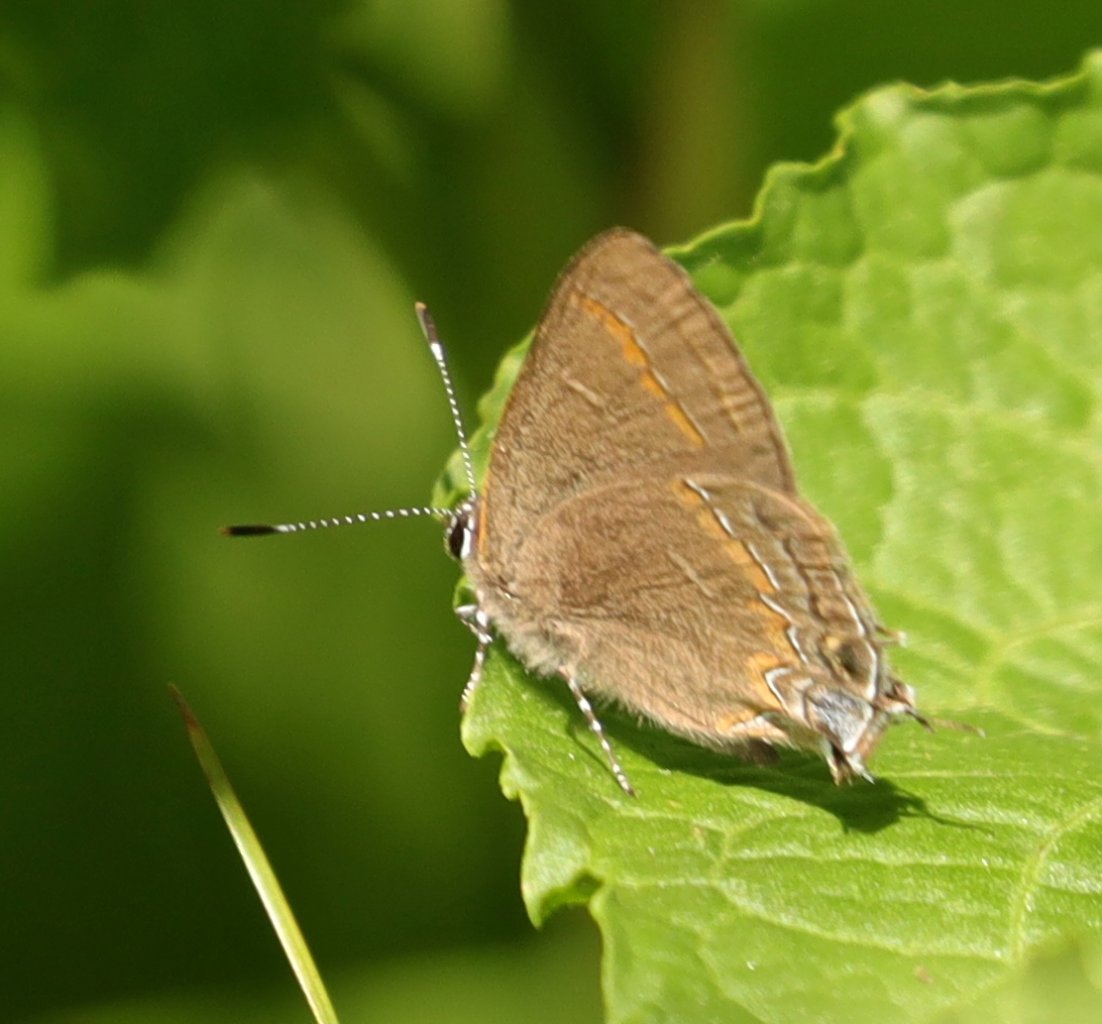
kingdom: Animalia
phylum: Arthropoda
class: Insecta
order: Lepidoptera
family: Lycaenidae
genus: Calycopis
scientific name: Calycopis cecrops
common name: Red-banded Hairstreak
